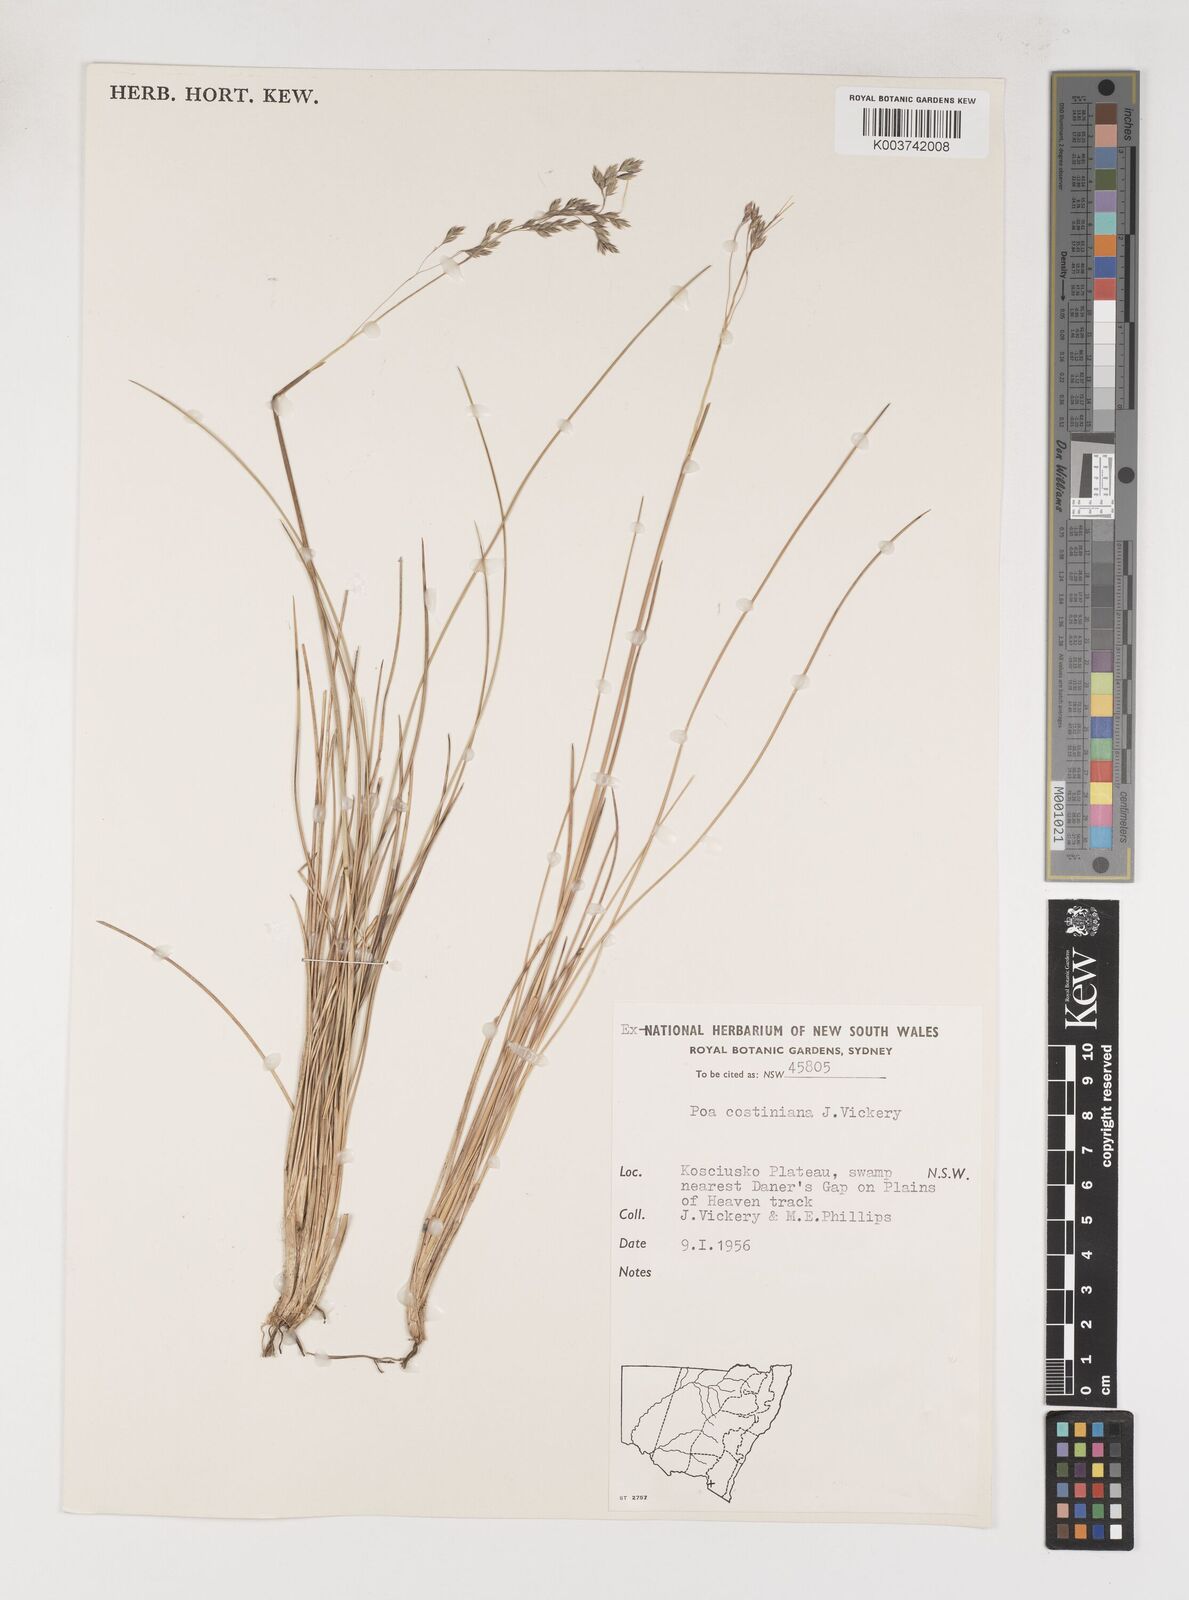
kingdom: Plantae
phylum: Tracheophyta
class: Liliopsida
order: Poales
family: Poaceae
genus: Poa
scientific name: Poa costiniana
